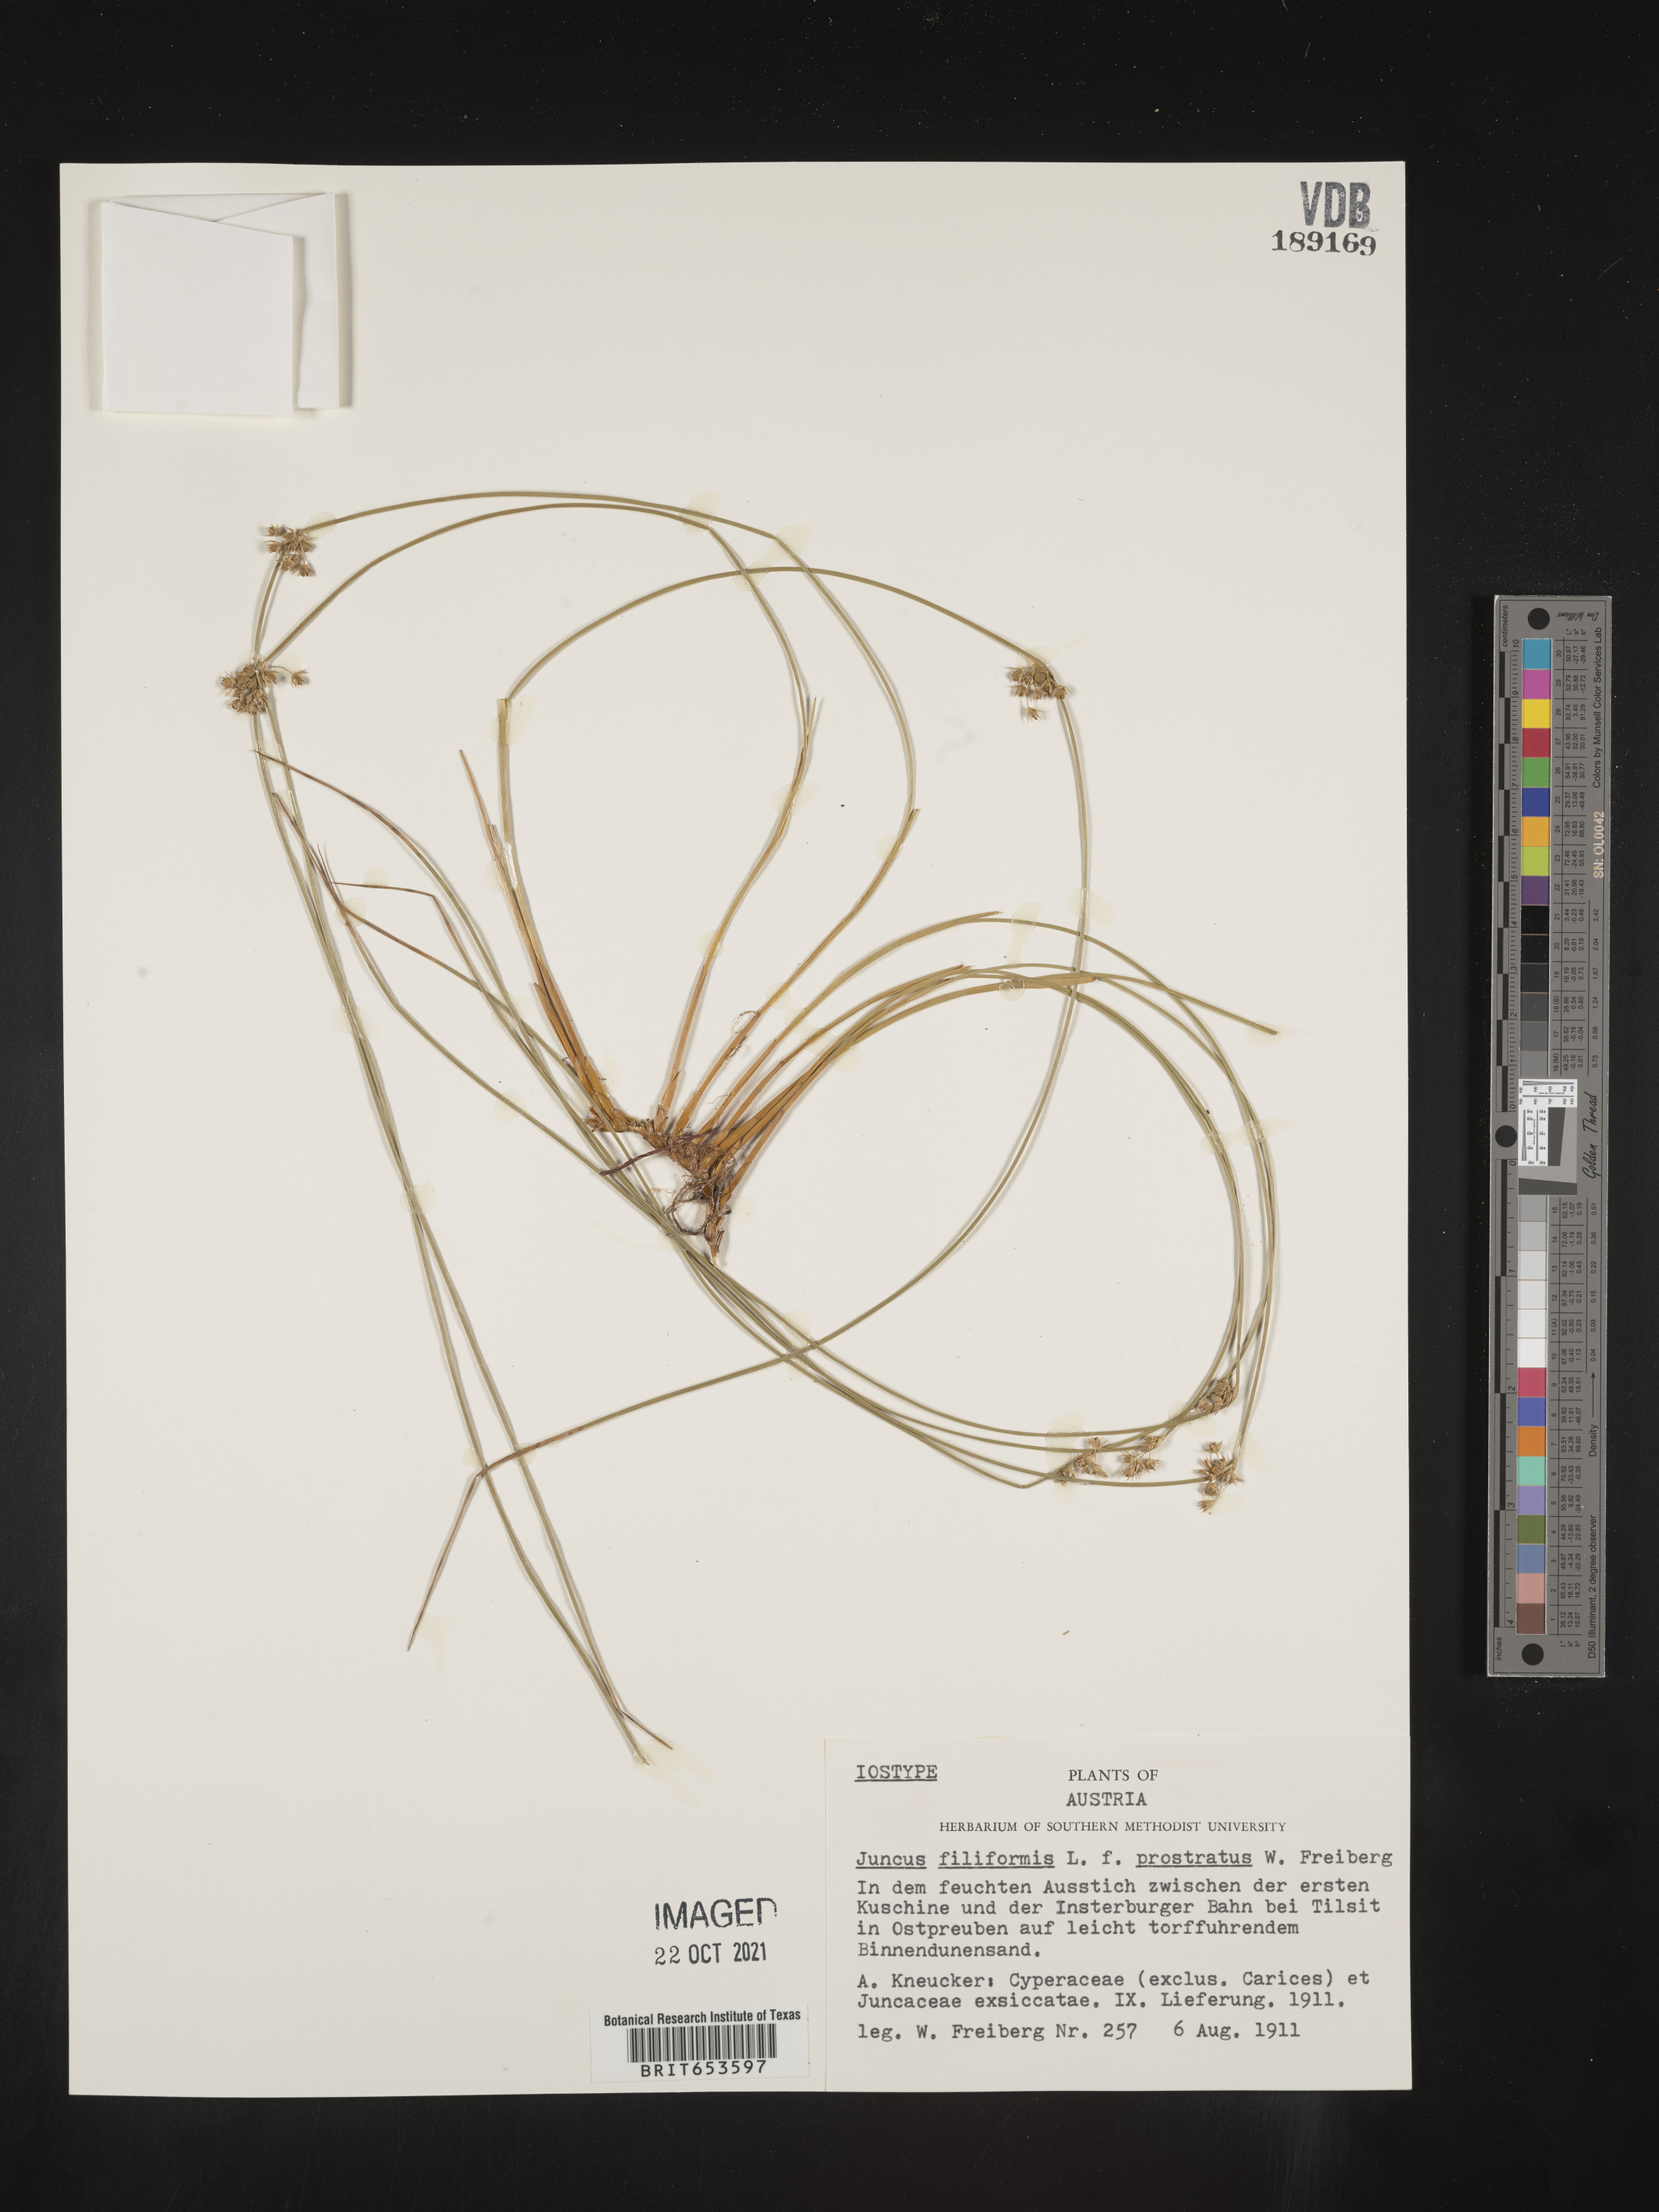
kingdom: Plantae
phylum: Tracheophyta
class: Liliopsida
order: Poales
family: Juncaceae
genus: Juncus
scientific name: Juncus
